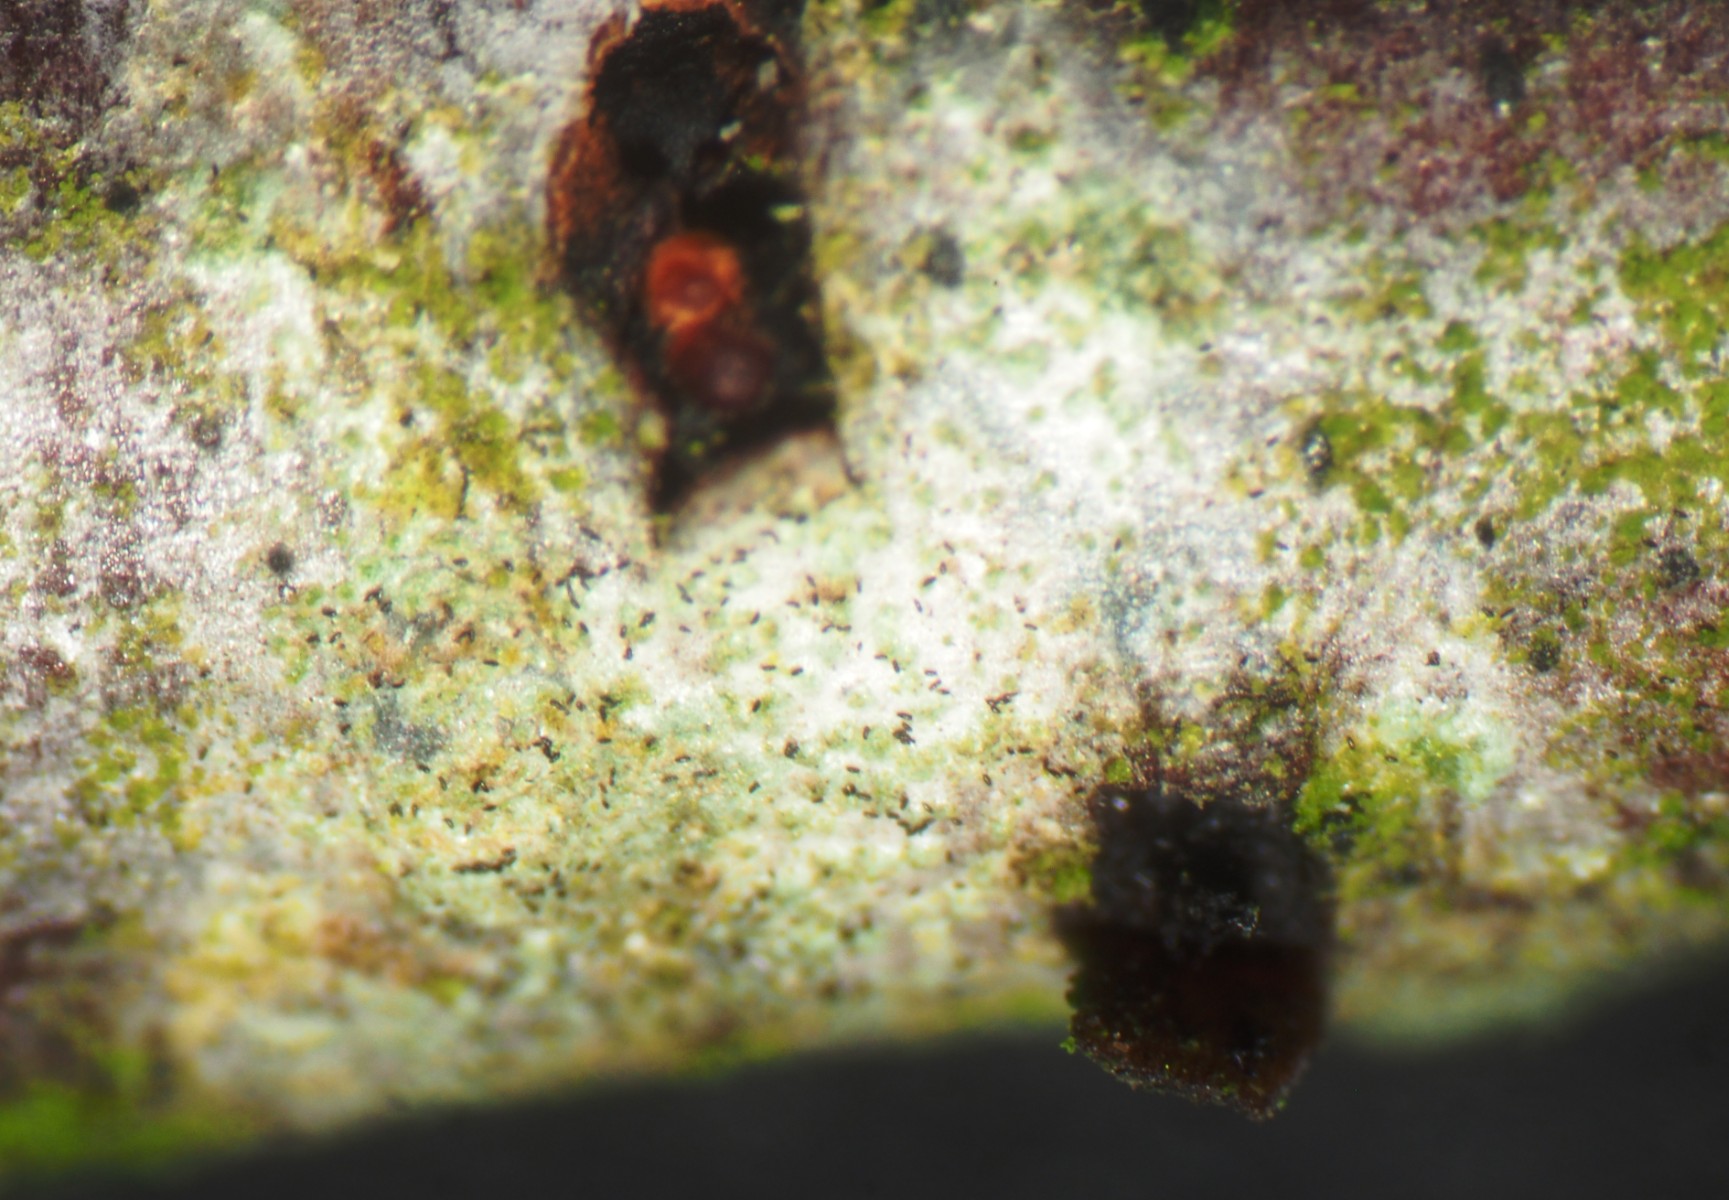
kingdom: Fungi
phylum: Ascomycota
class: Sordariomycetes
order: Hypocreales
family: Nectriaceae
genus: Stylonectria
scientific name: Stylonectria wegeliniana
